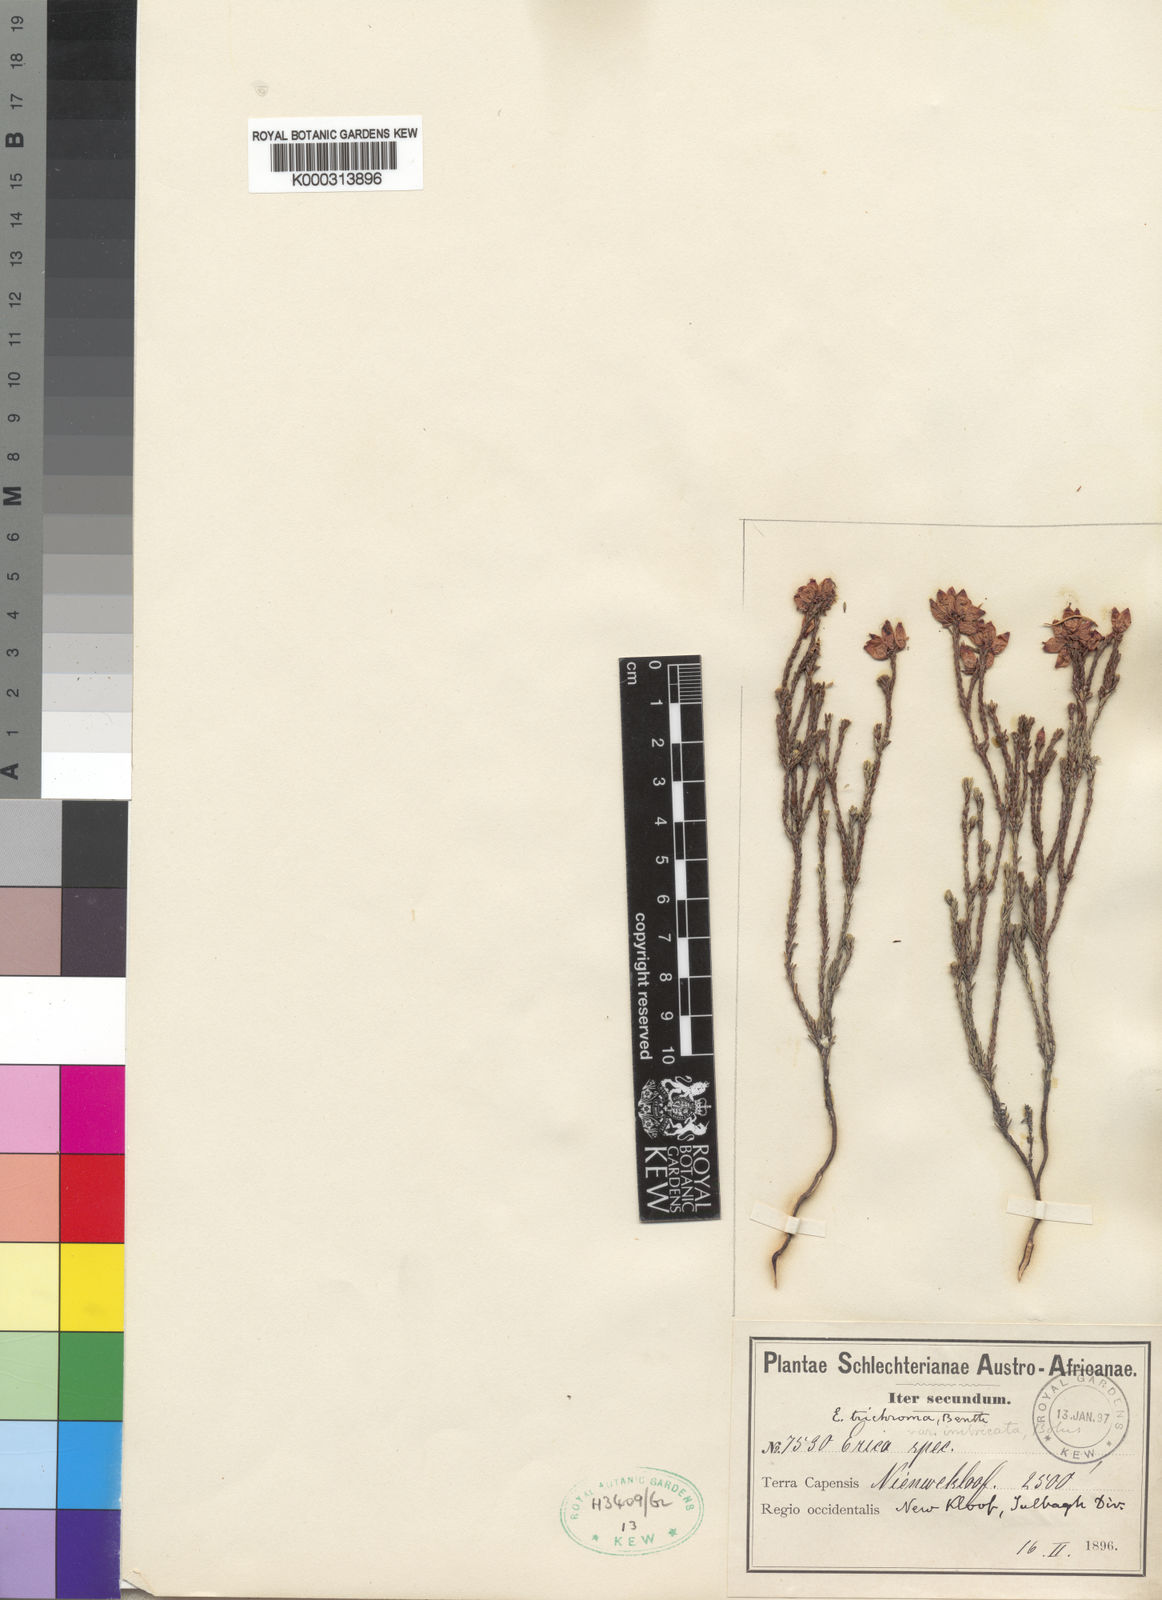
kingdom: Plantae
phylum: Tracheophyta
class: Magnoliopsida
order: Ericales
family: Ericaceae
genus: Erica
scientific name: Erica trichroma
